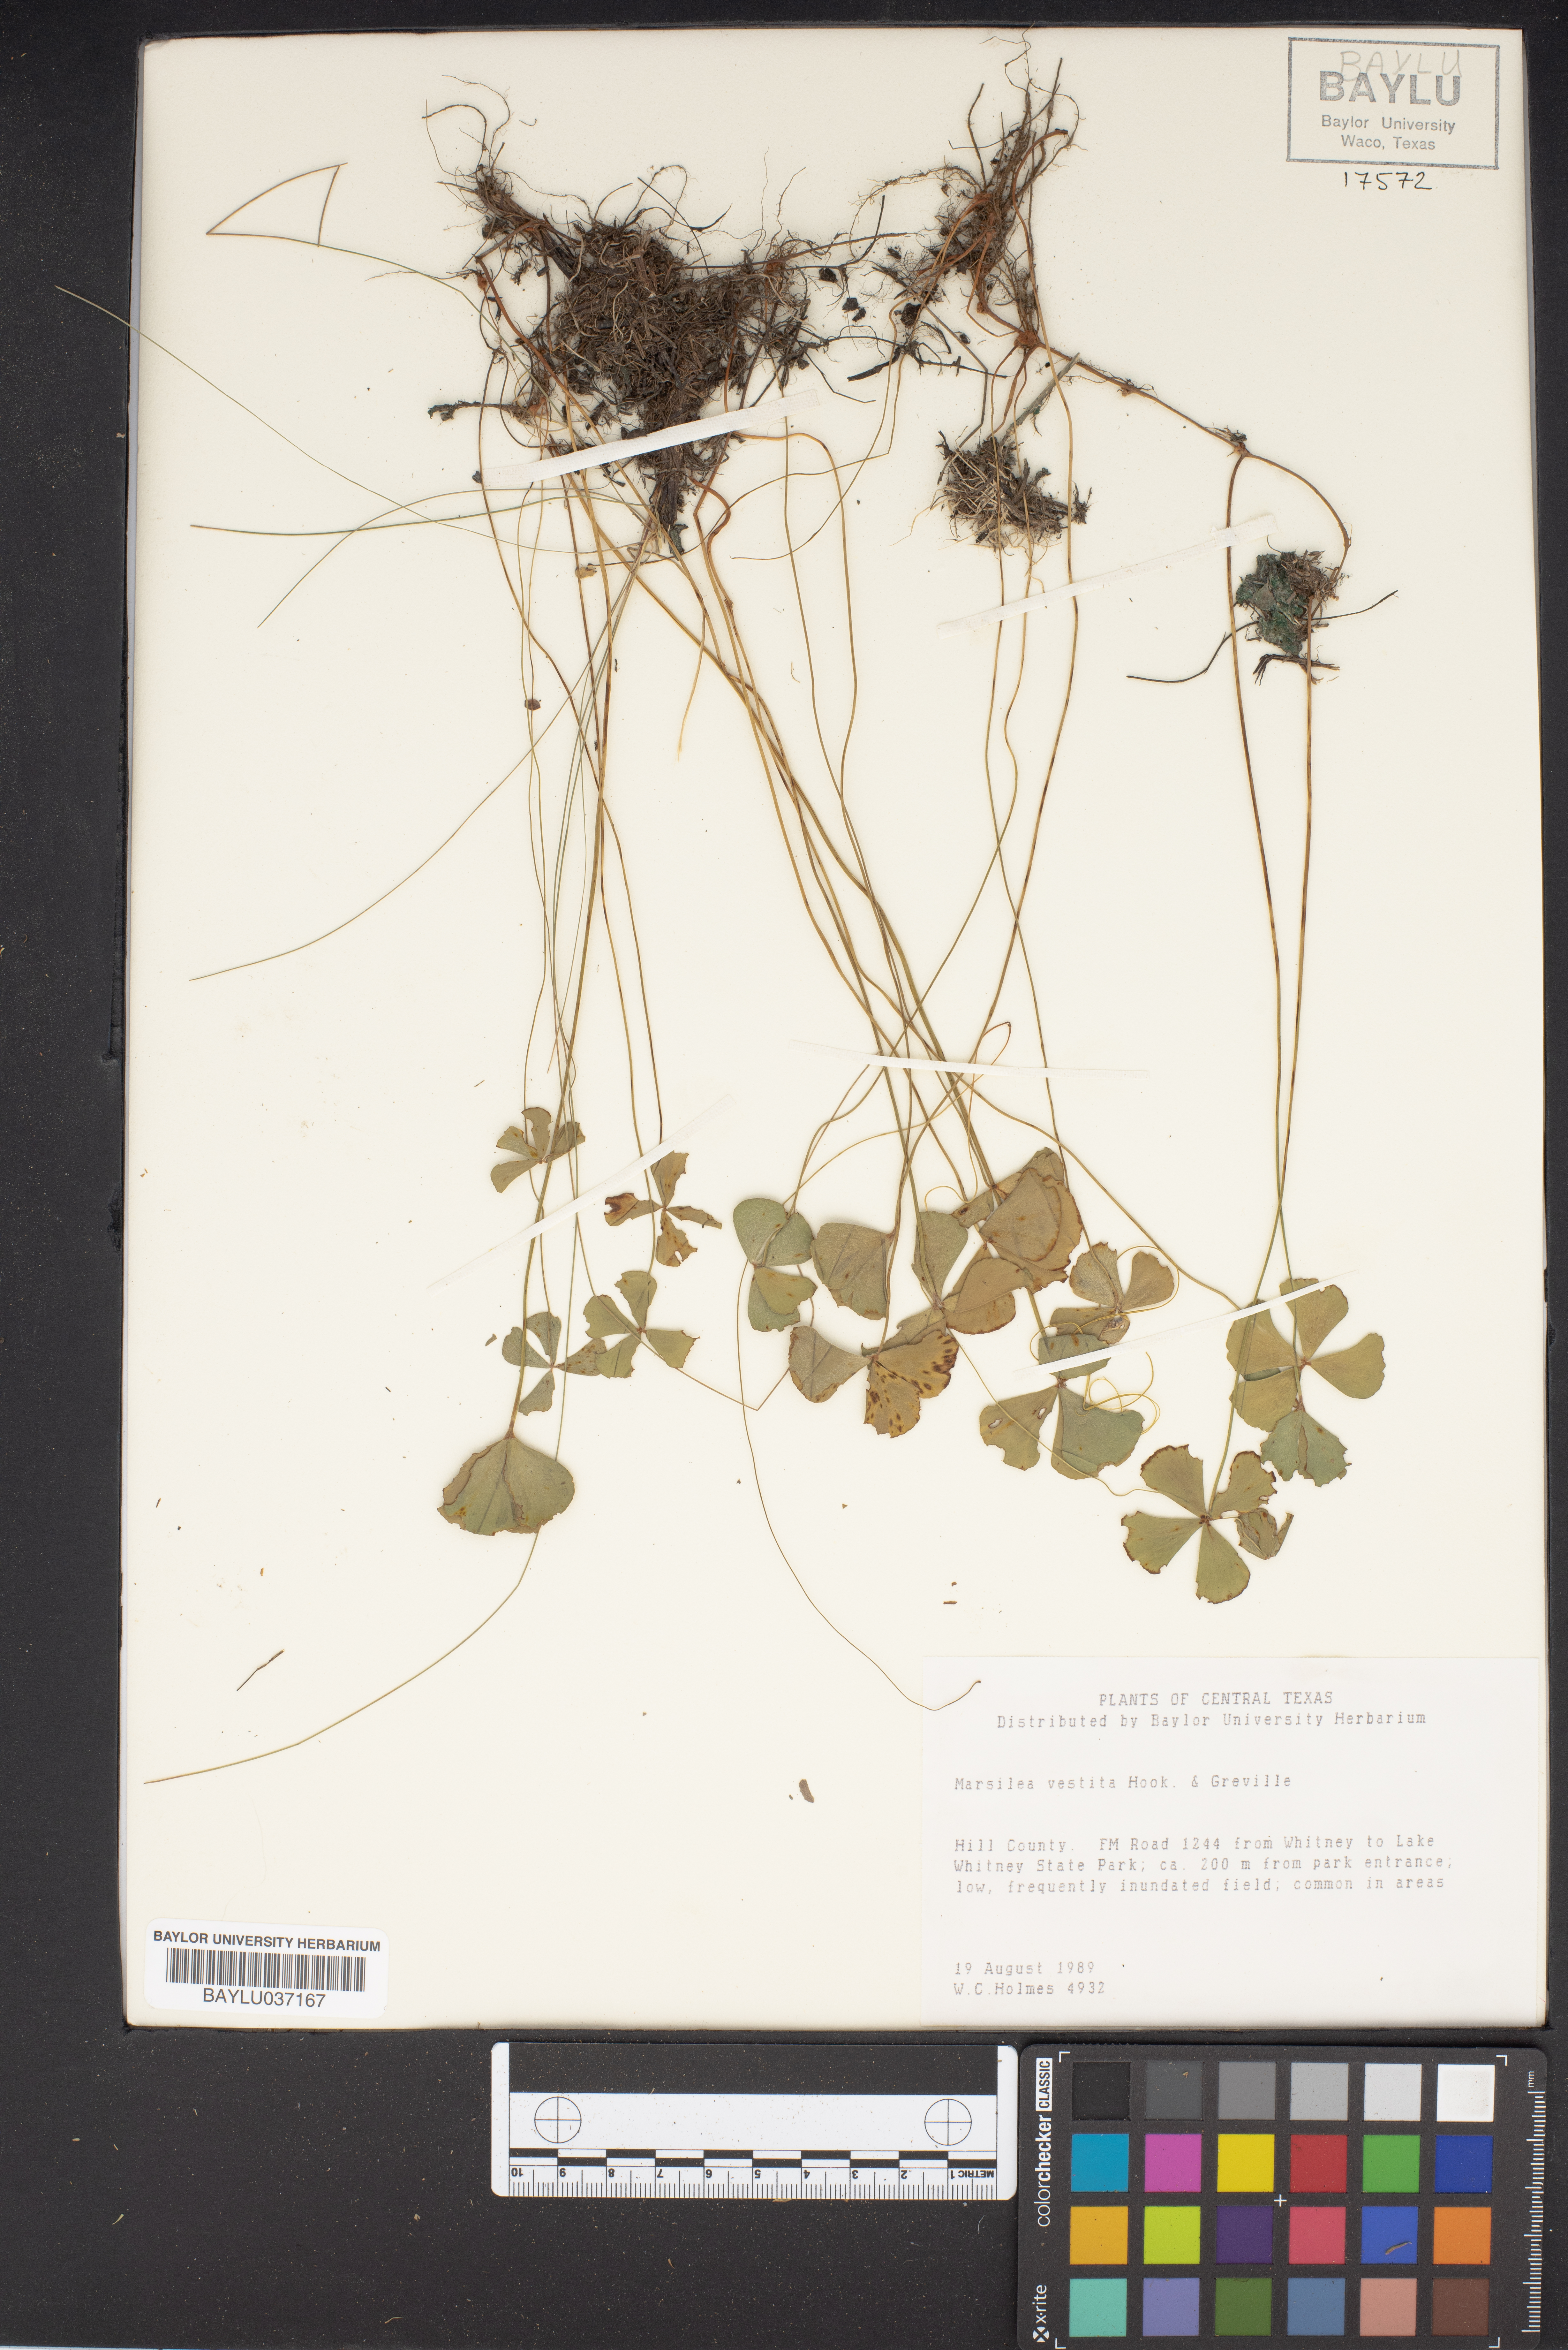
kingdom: Plantae
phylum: Tracheophyta
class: Polypodiopsida
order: Salviniales
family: Marsileaceae
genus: Marsilea
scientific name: Marsilea vestita
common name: Hooked-pepperwort
